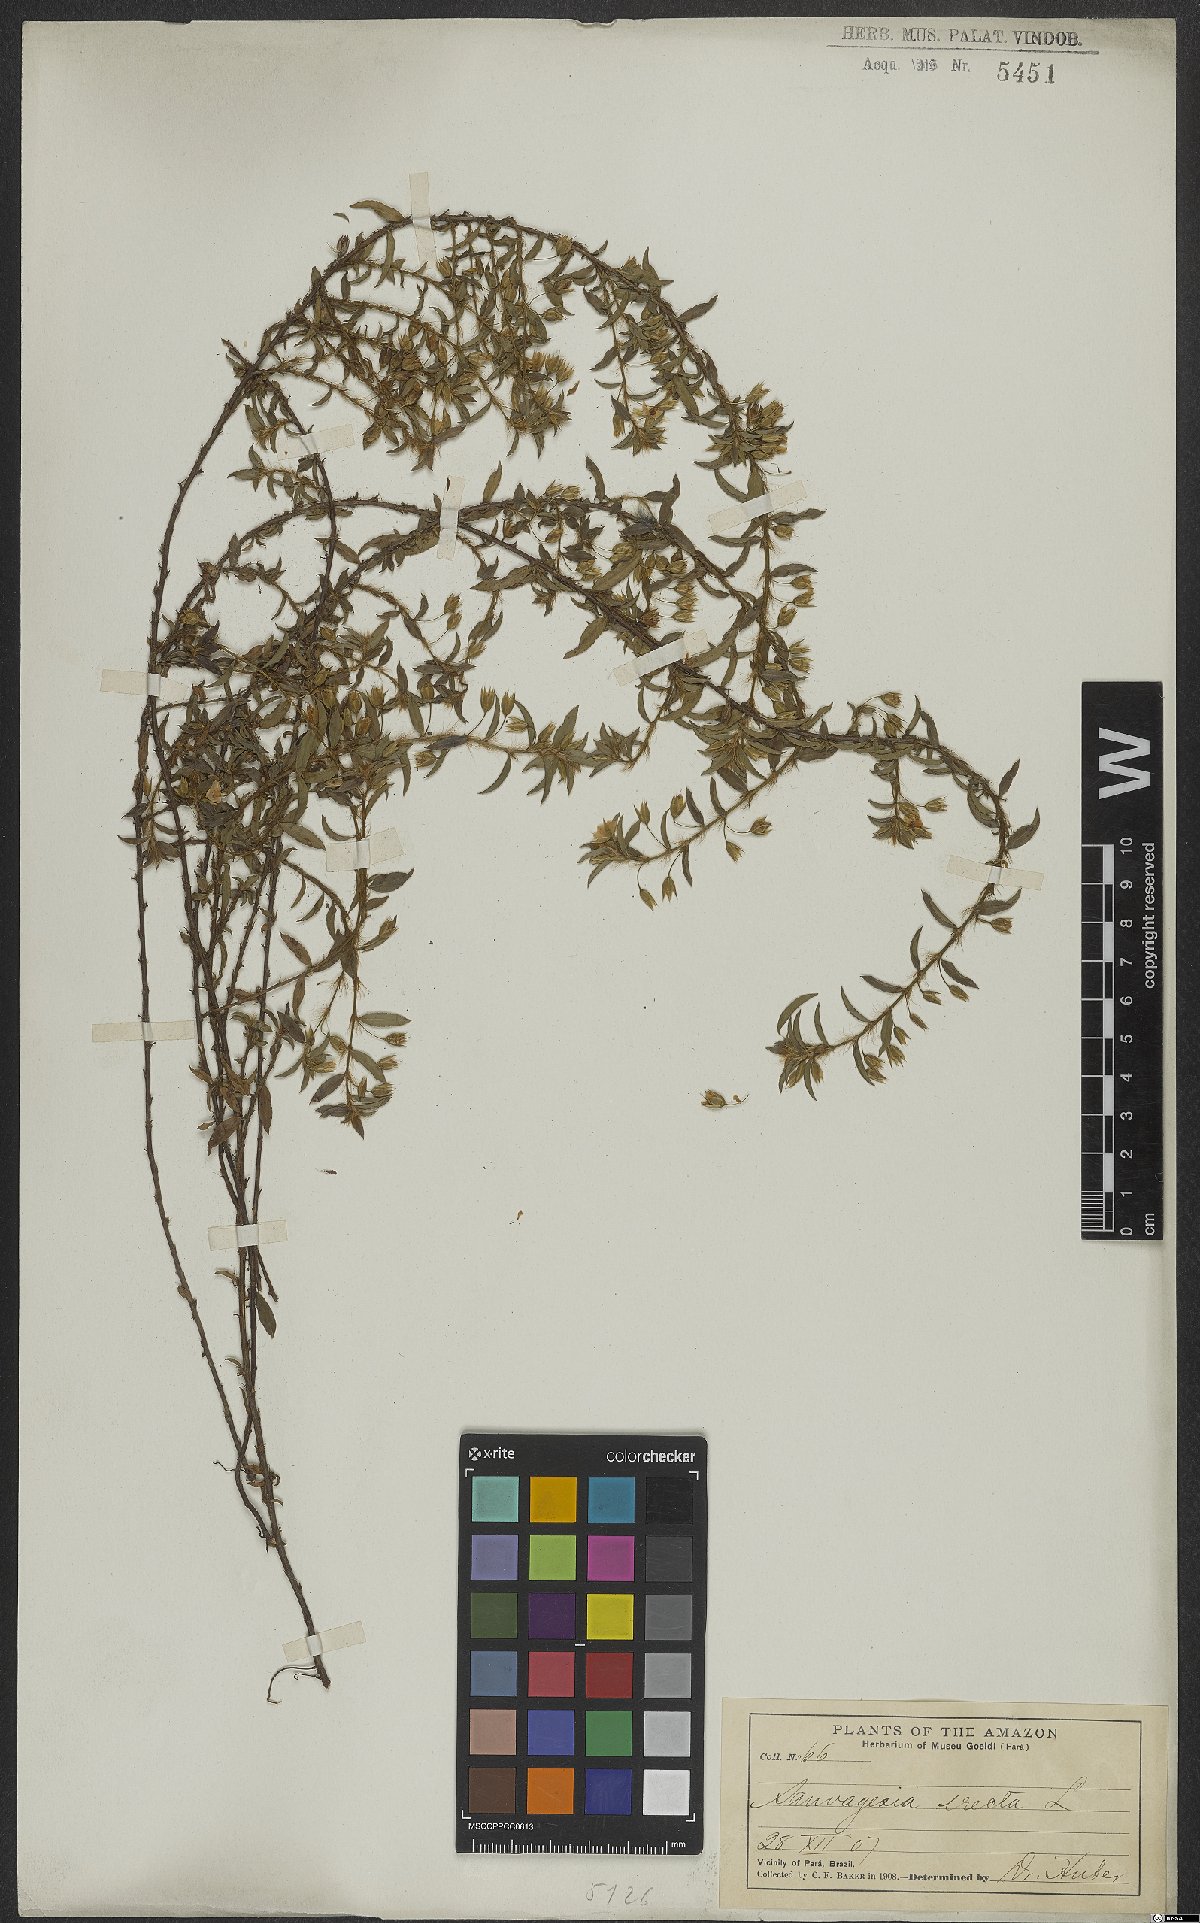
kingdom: Plantae
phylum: Tracheophyta
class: Magnoliopsida
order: Malpighiales
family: Ochnaceae
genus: Sauvagesia
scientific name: Sauvagesia erecta
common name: Creole tea
